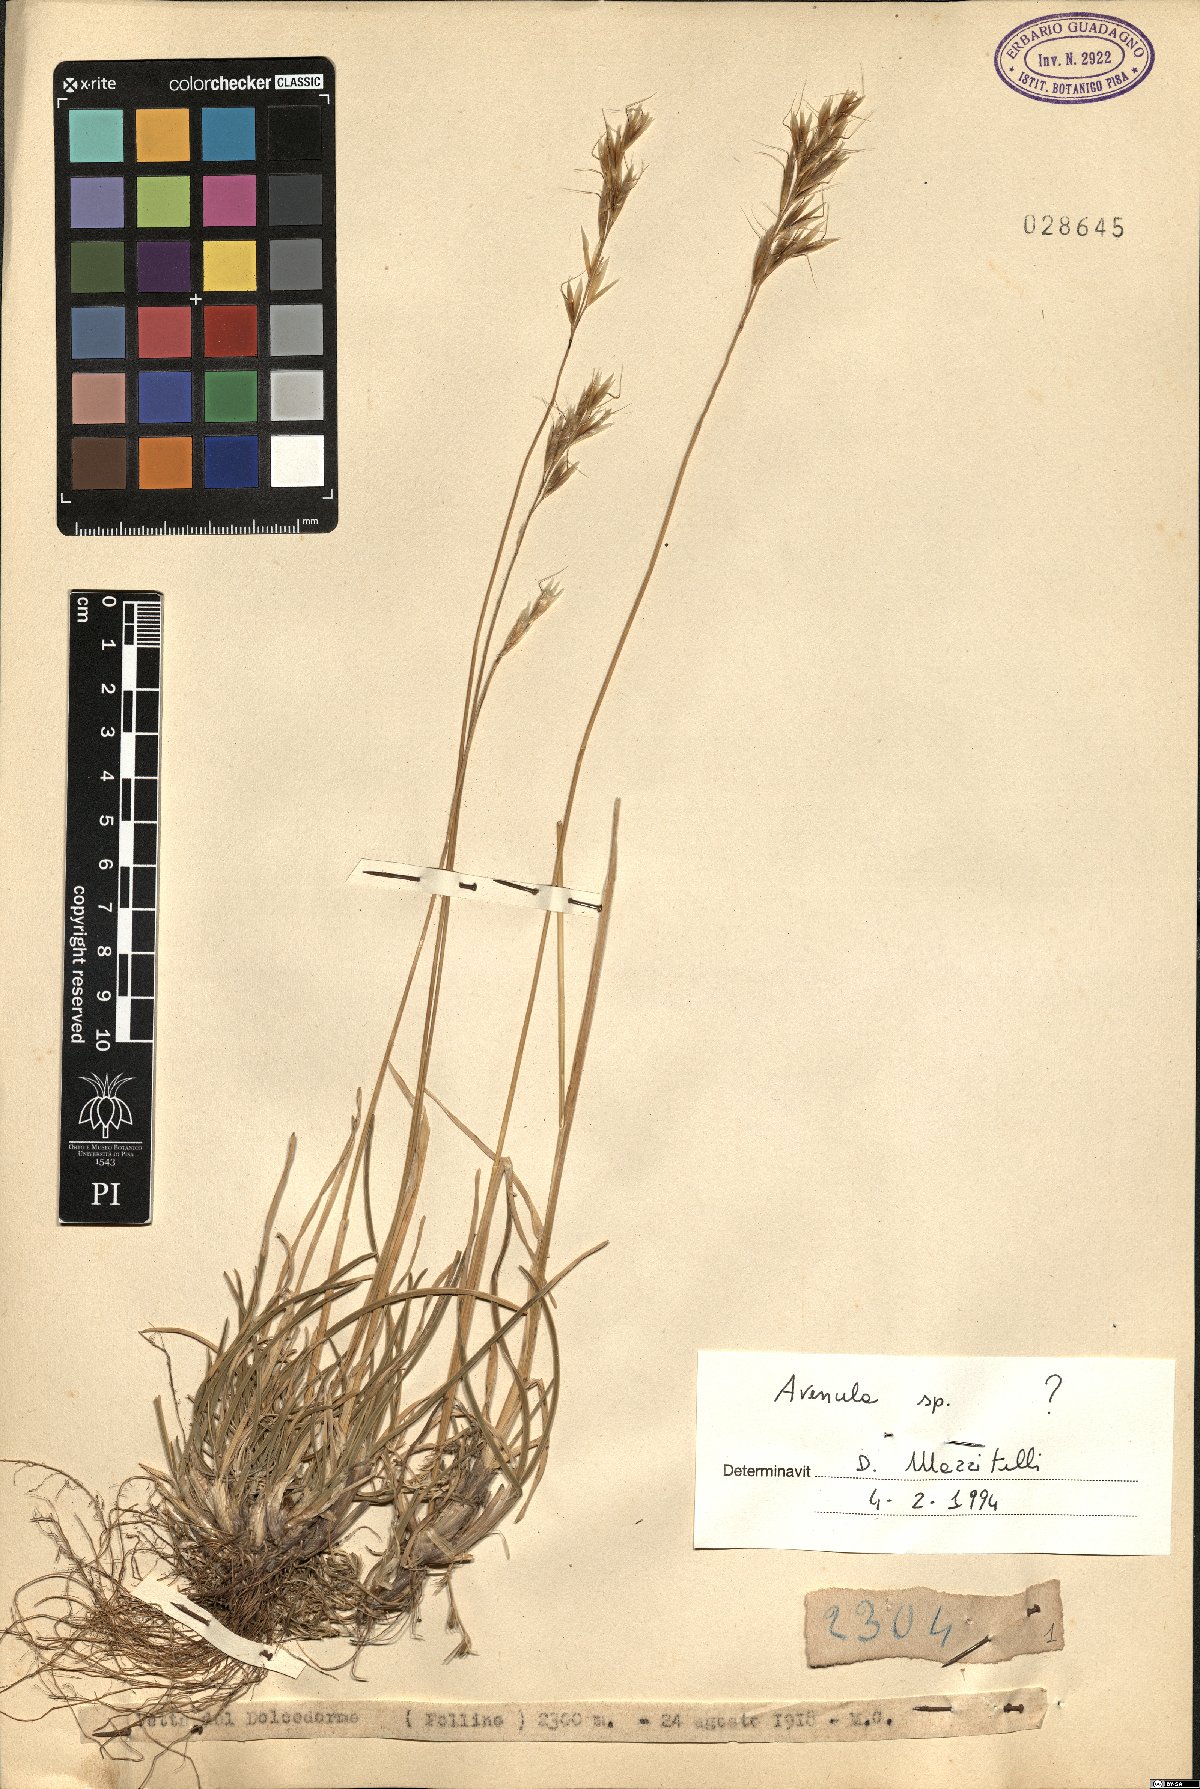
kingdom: Plantae
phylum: Tracheophyta
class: Liliopsida
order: Poales
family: Poaceae
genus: Avenula
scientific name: Avenula
